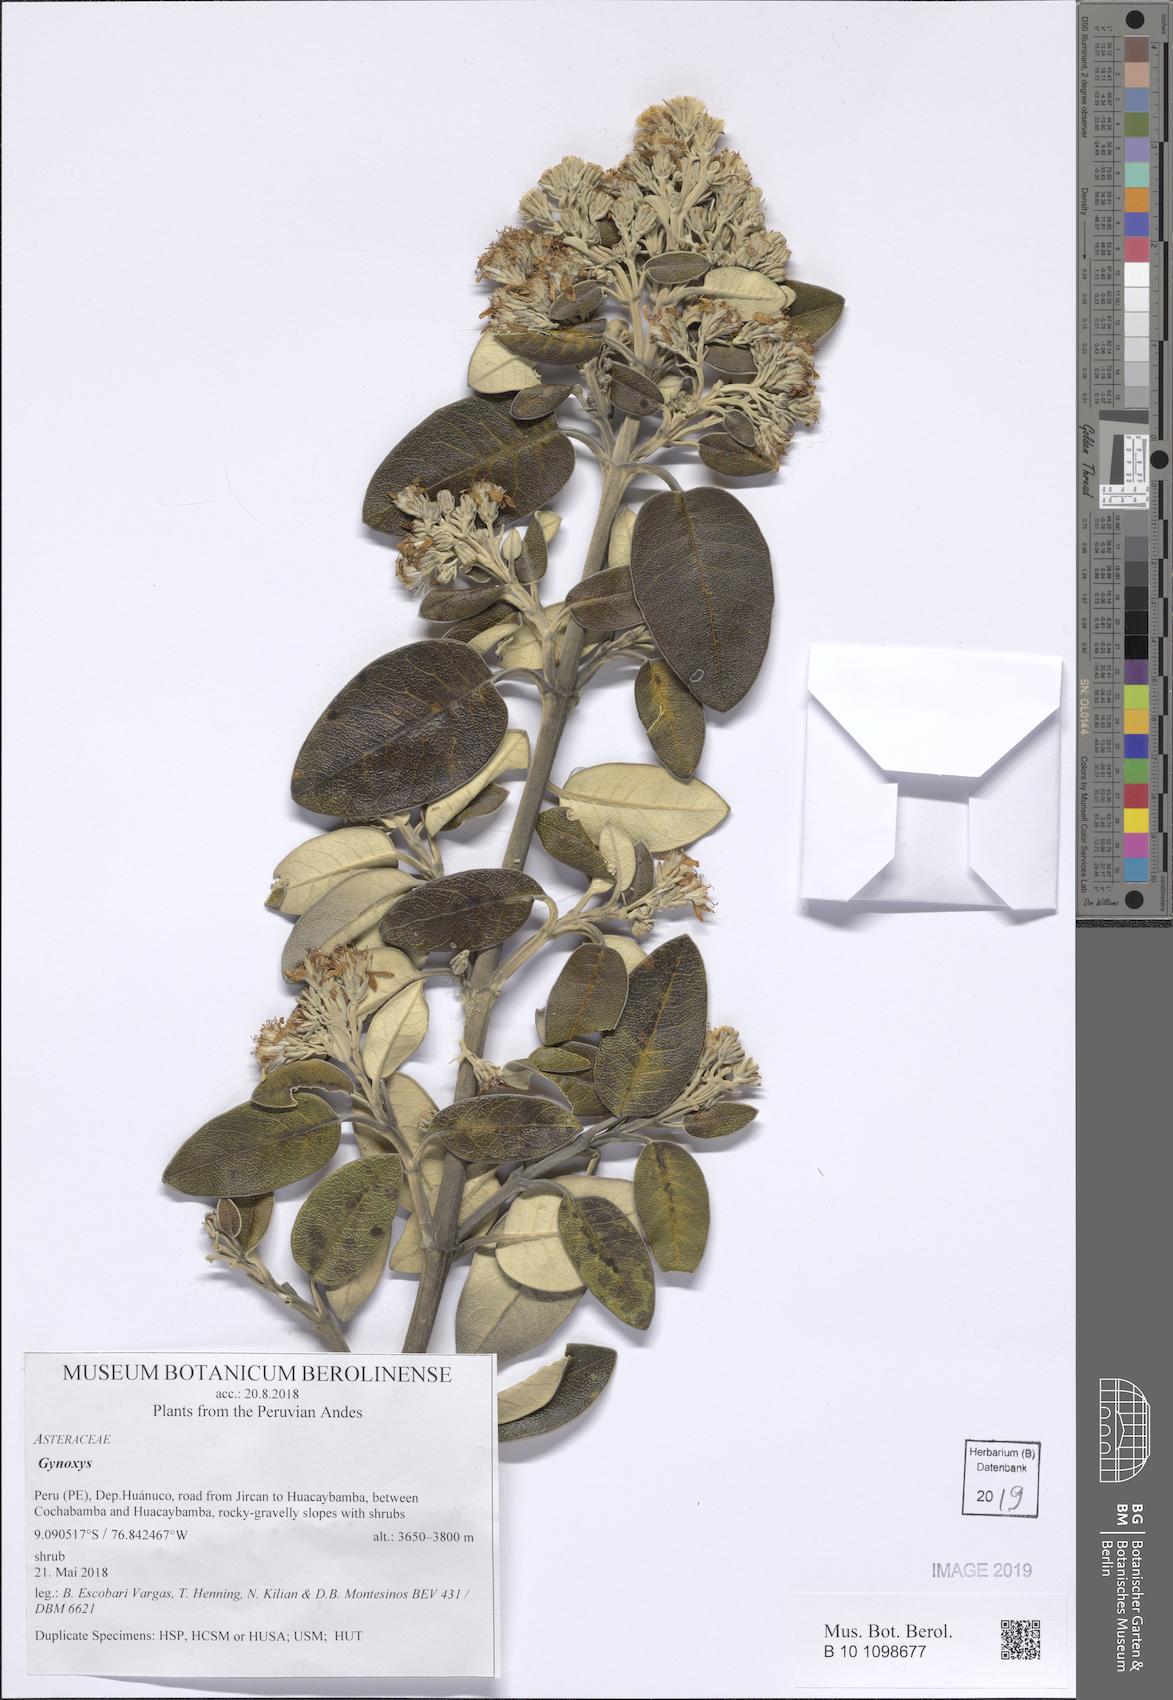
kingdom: Plantae
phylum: Tracheophyta
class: Magnoliopsida
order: Asterales
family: Asteraceae
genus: Gynoxys
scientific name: Gynoxys
